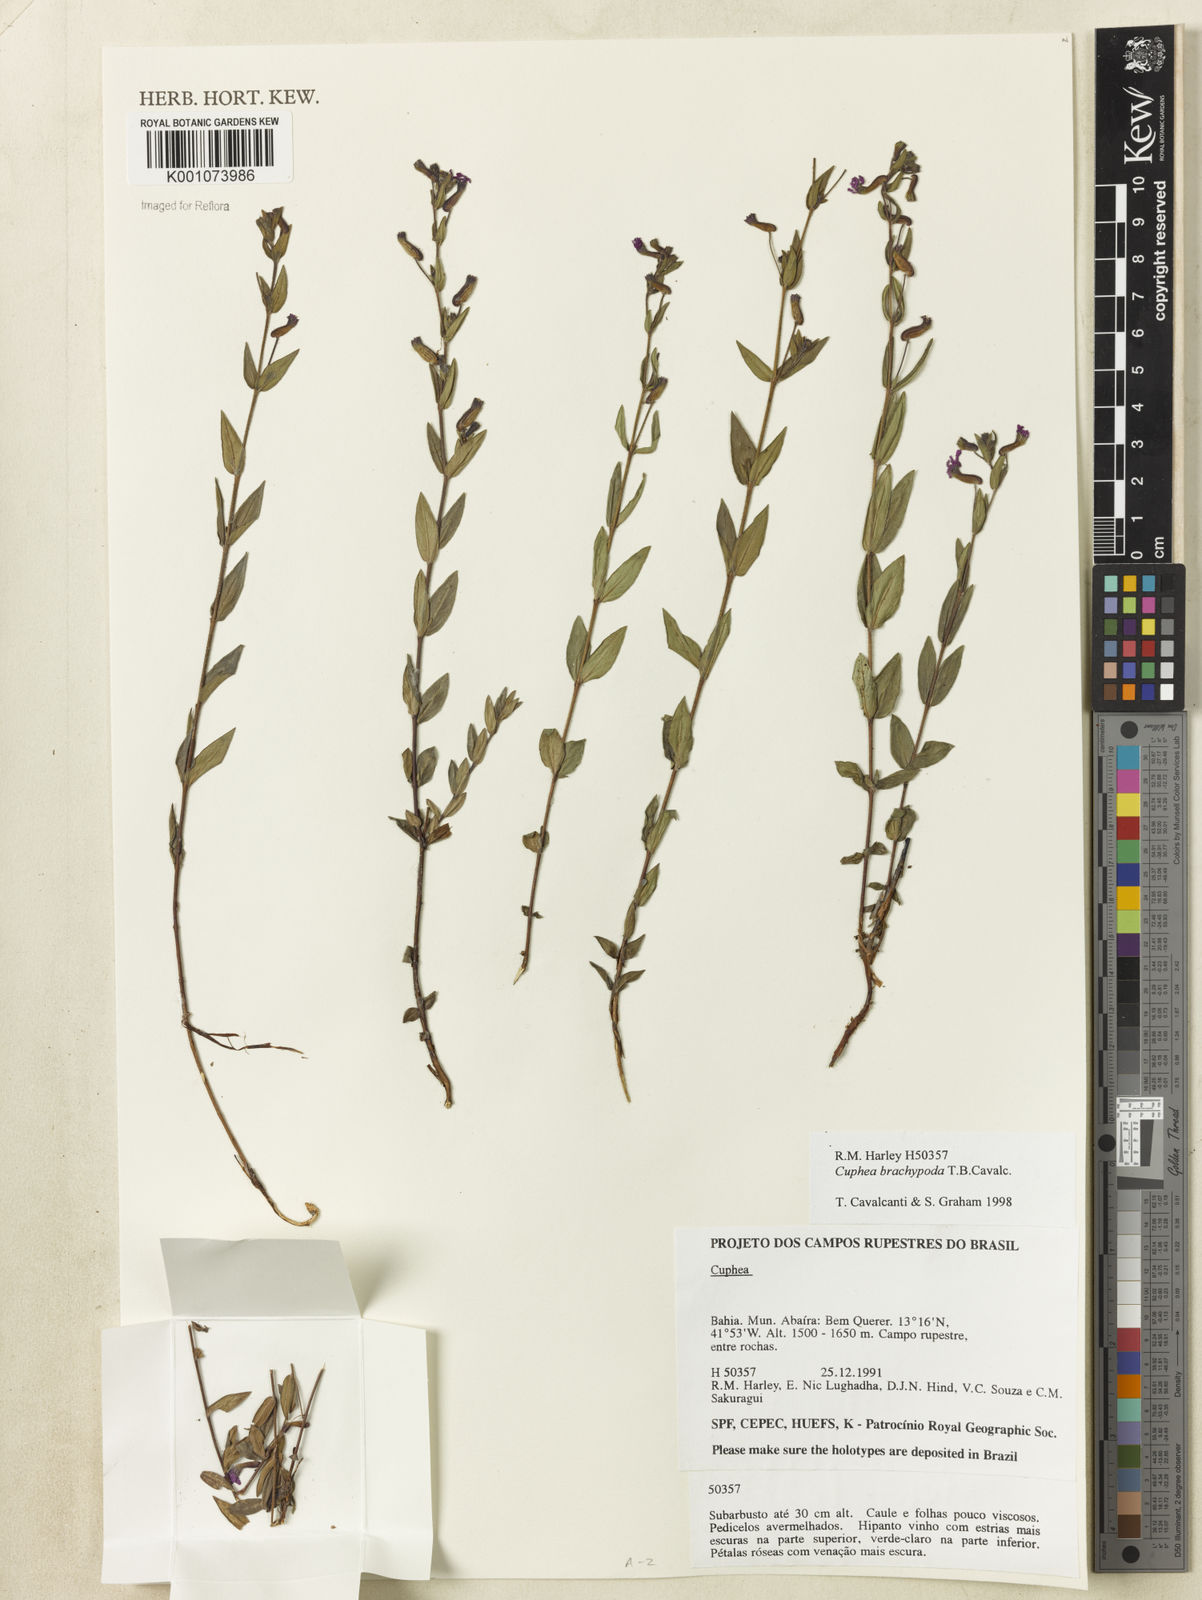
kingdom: Plantae
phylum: Tracheophyta
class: Magnoliopsida
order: Myrtales
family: Lythraceae
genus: Cuphea
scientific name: Cuphea brachypoda
